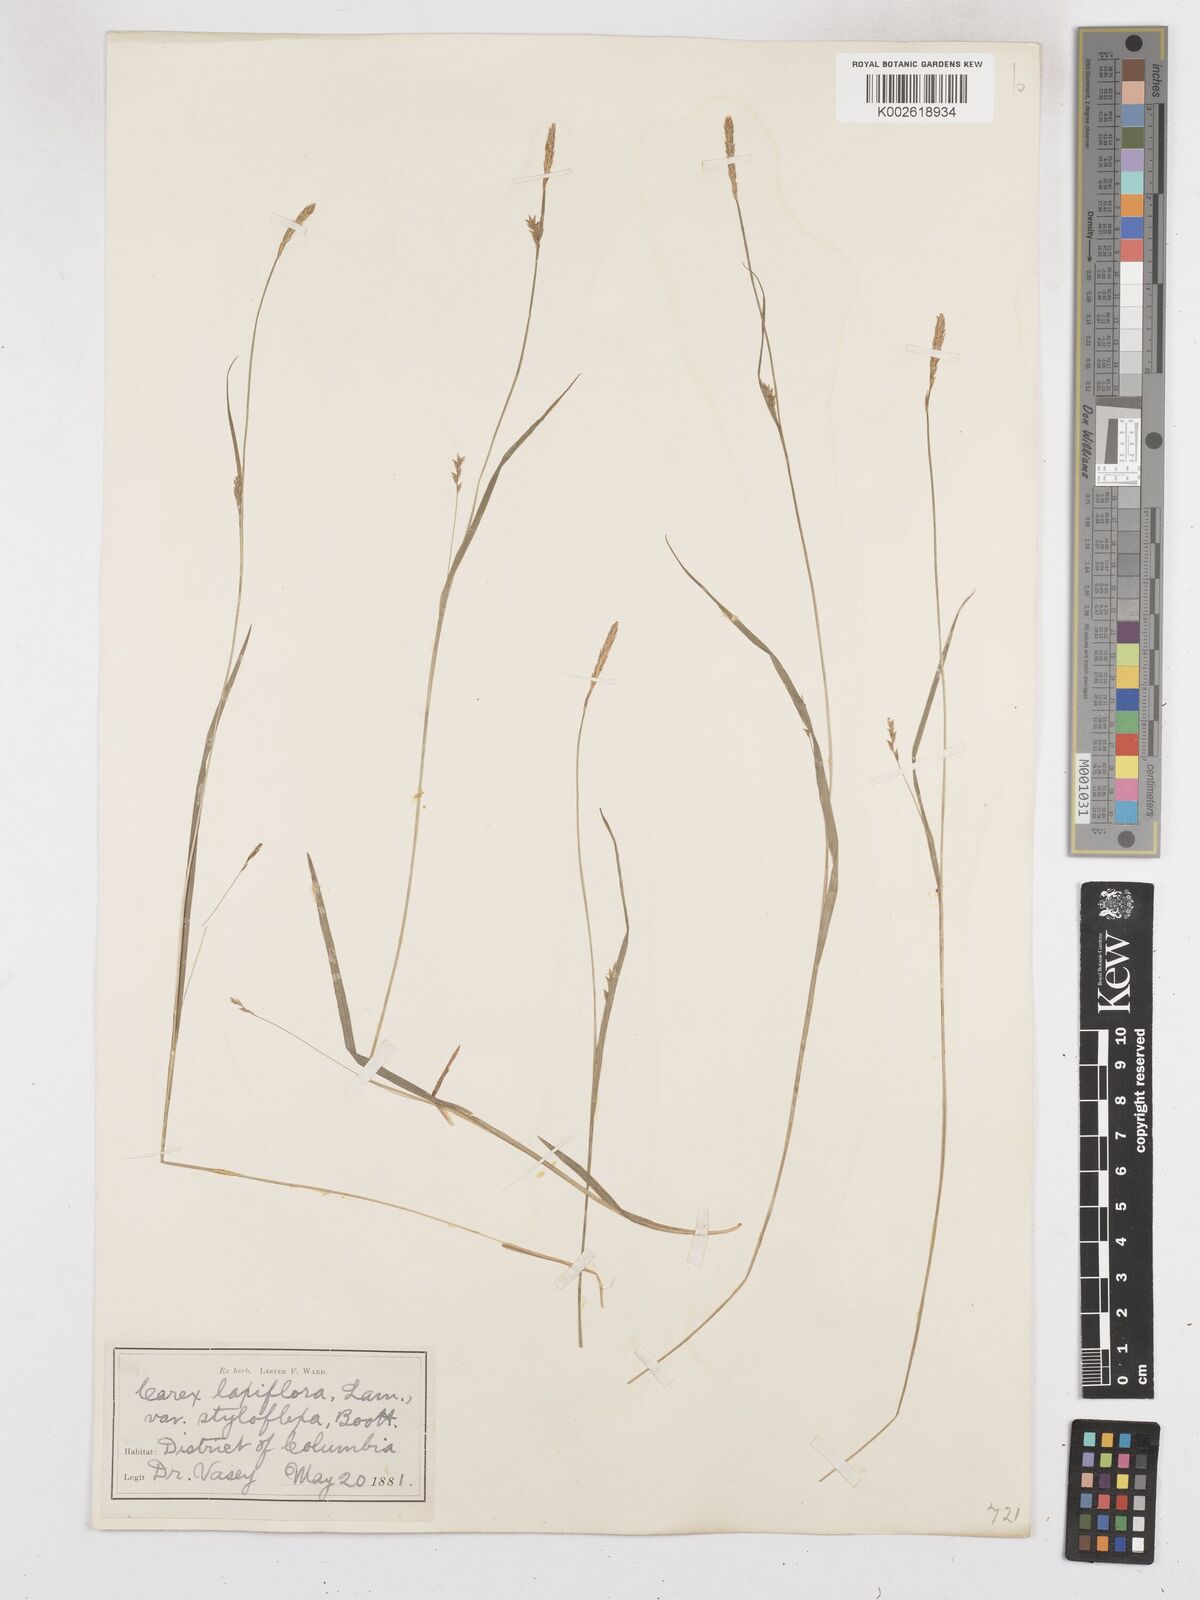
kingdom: Plantae
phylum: Tracheophyta
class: Liliopsida
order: Poales
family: Cyperaceae
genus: Carex
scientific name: Carex laxiflora
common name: Beech wood sedge
